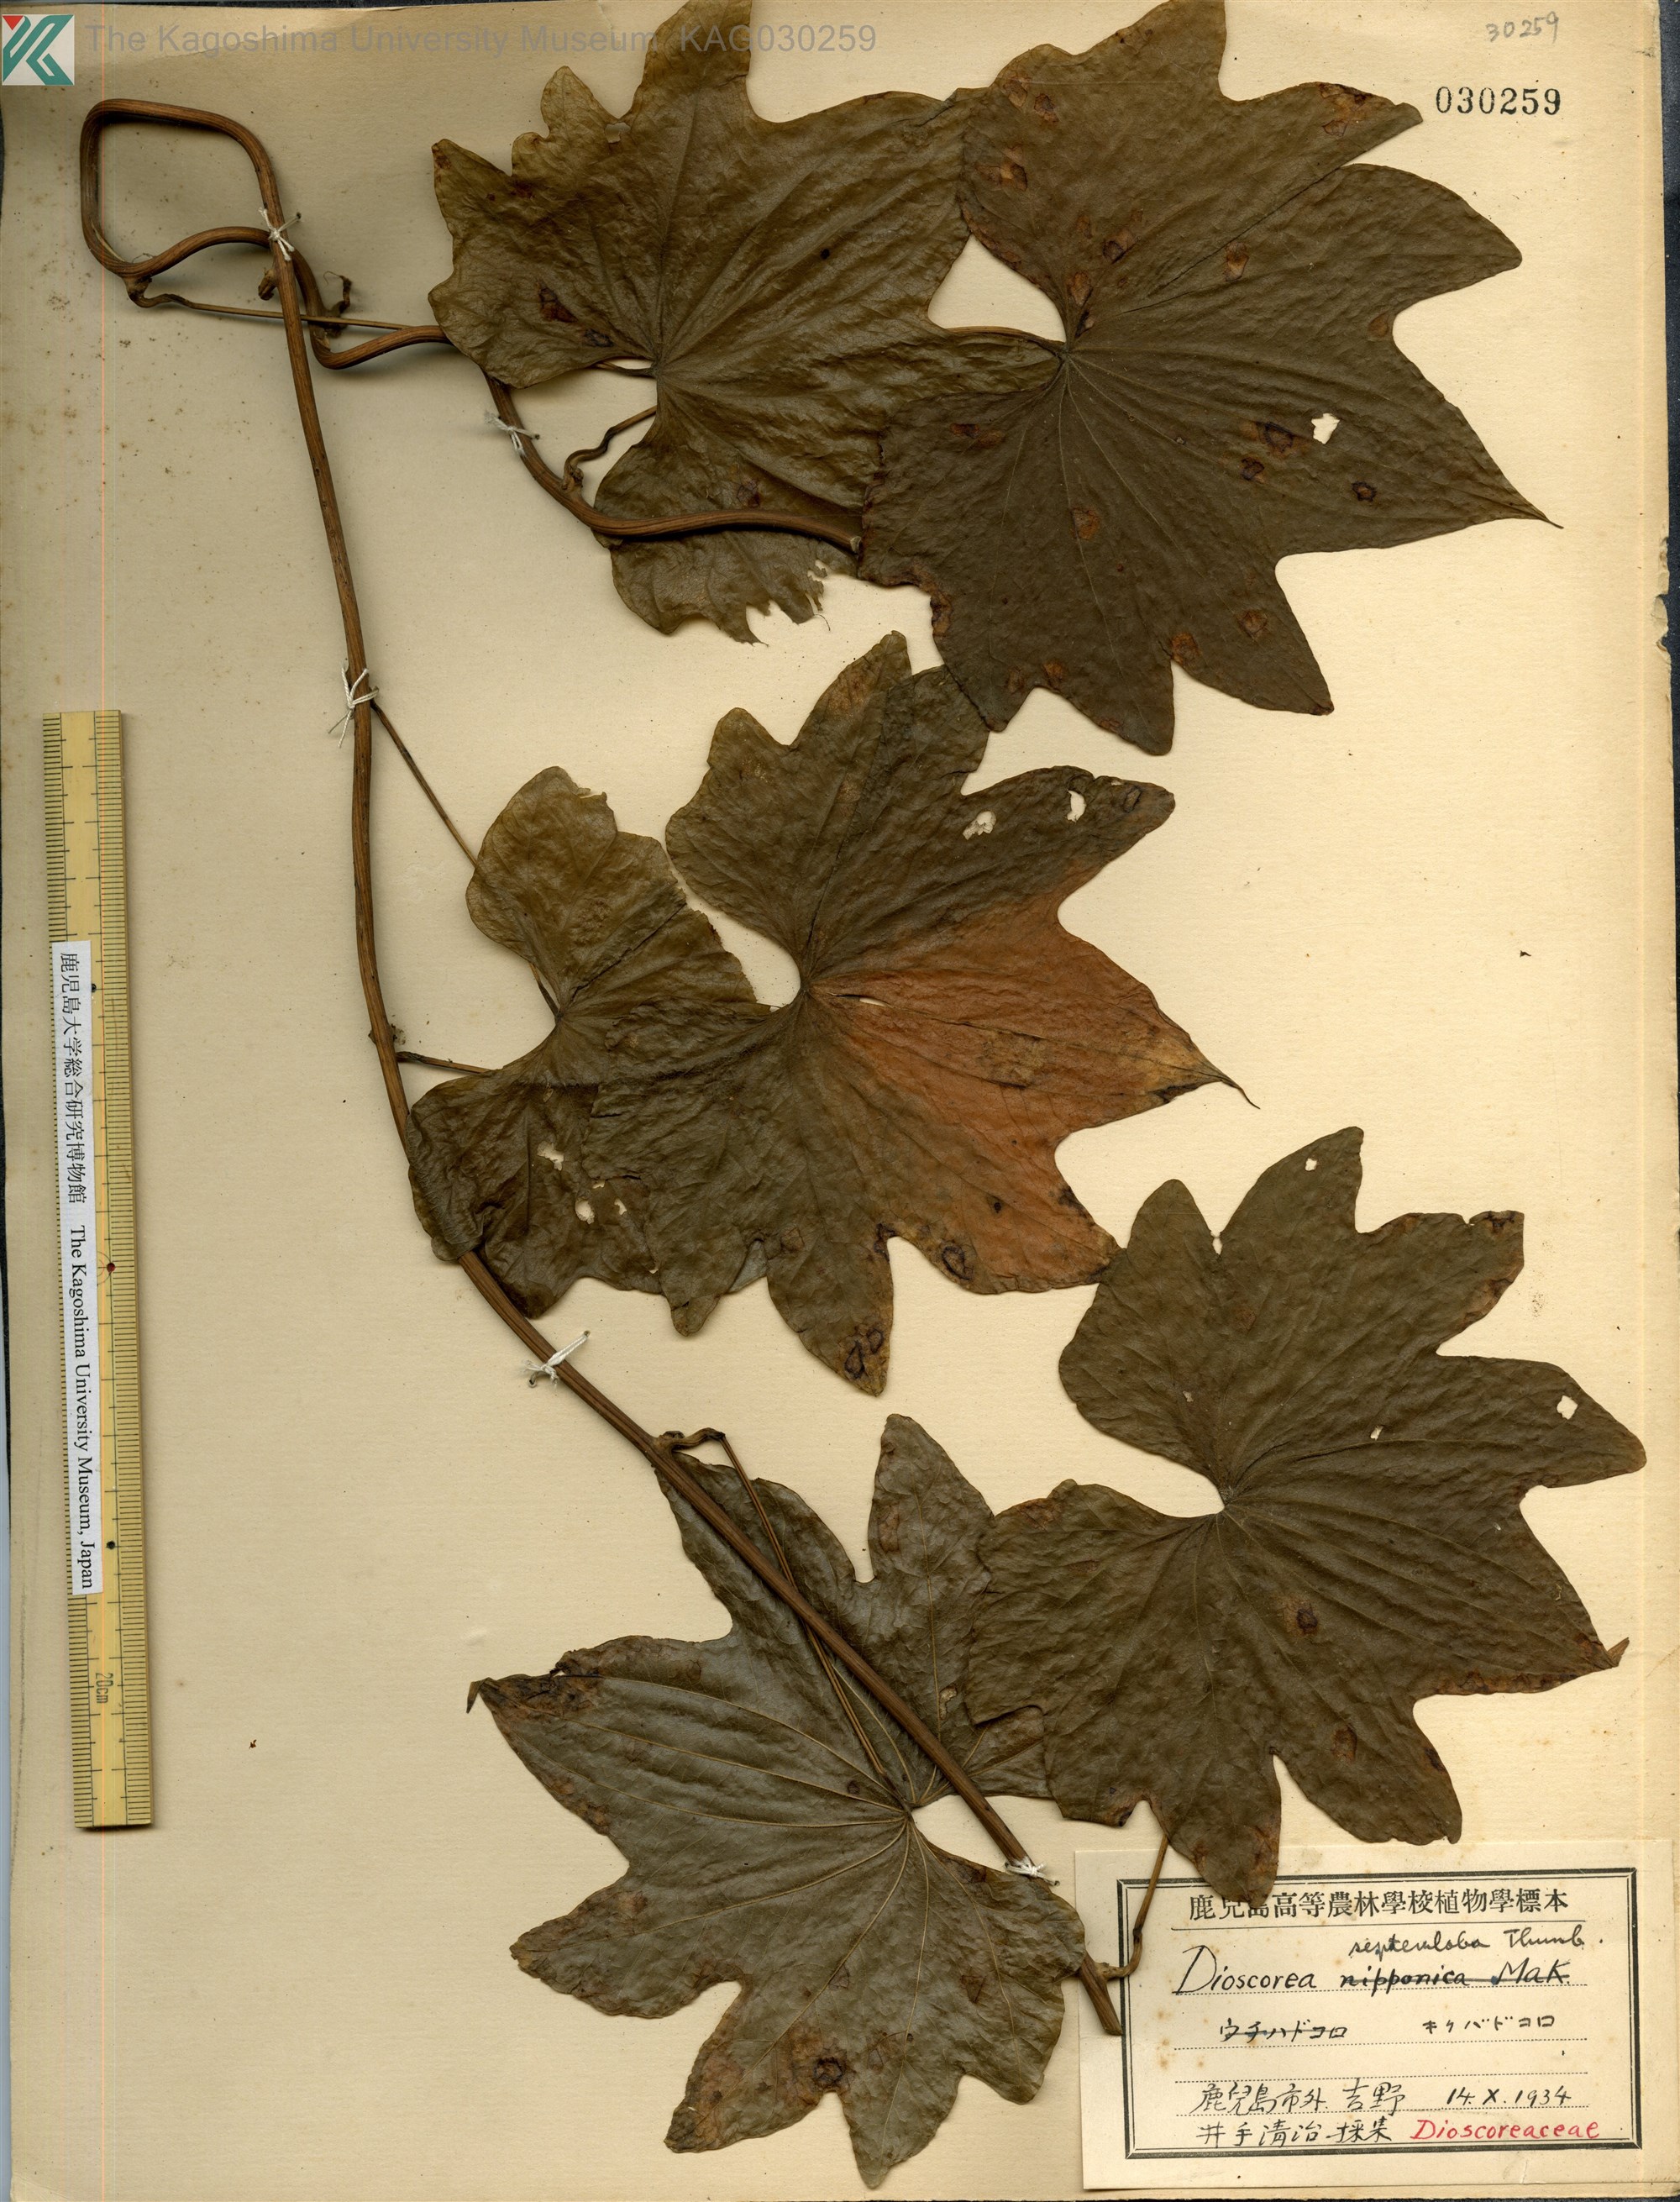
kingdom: Plantae
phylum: Tracheophyta
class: Liliopsida
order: Dioscoreales
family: Dioscoreaceae
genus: Dioscorea
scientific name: Dioscorea septemloba
